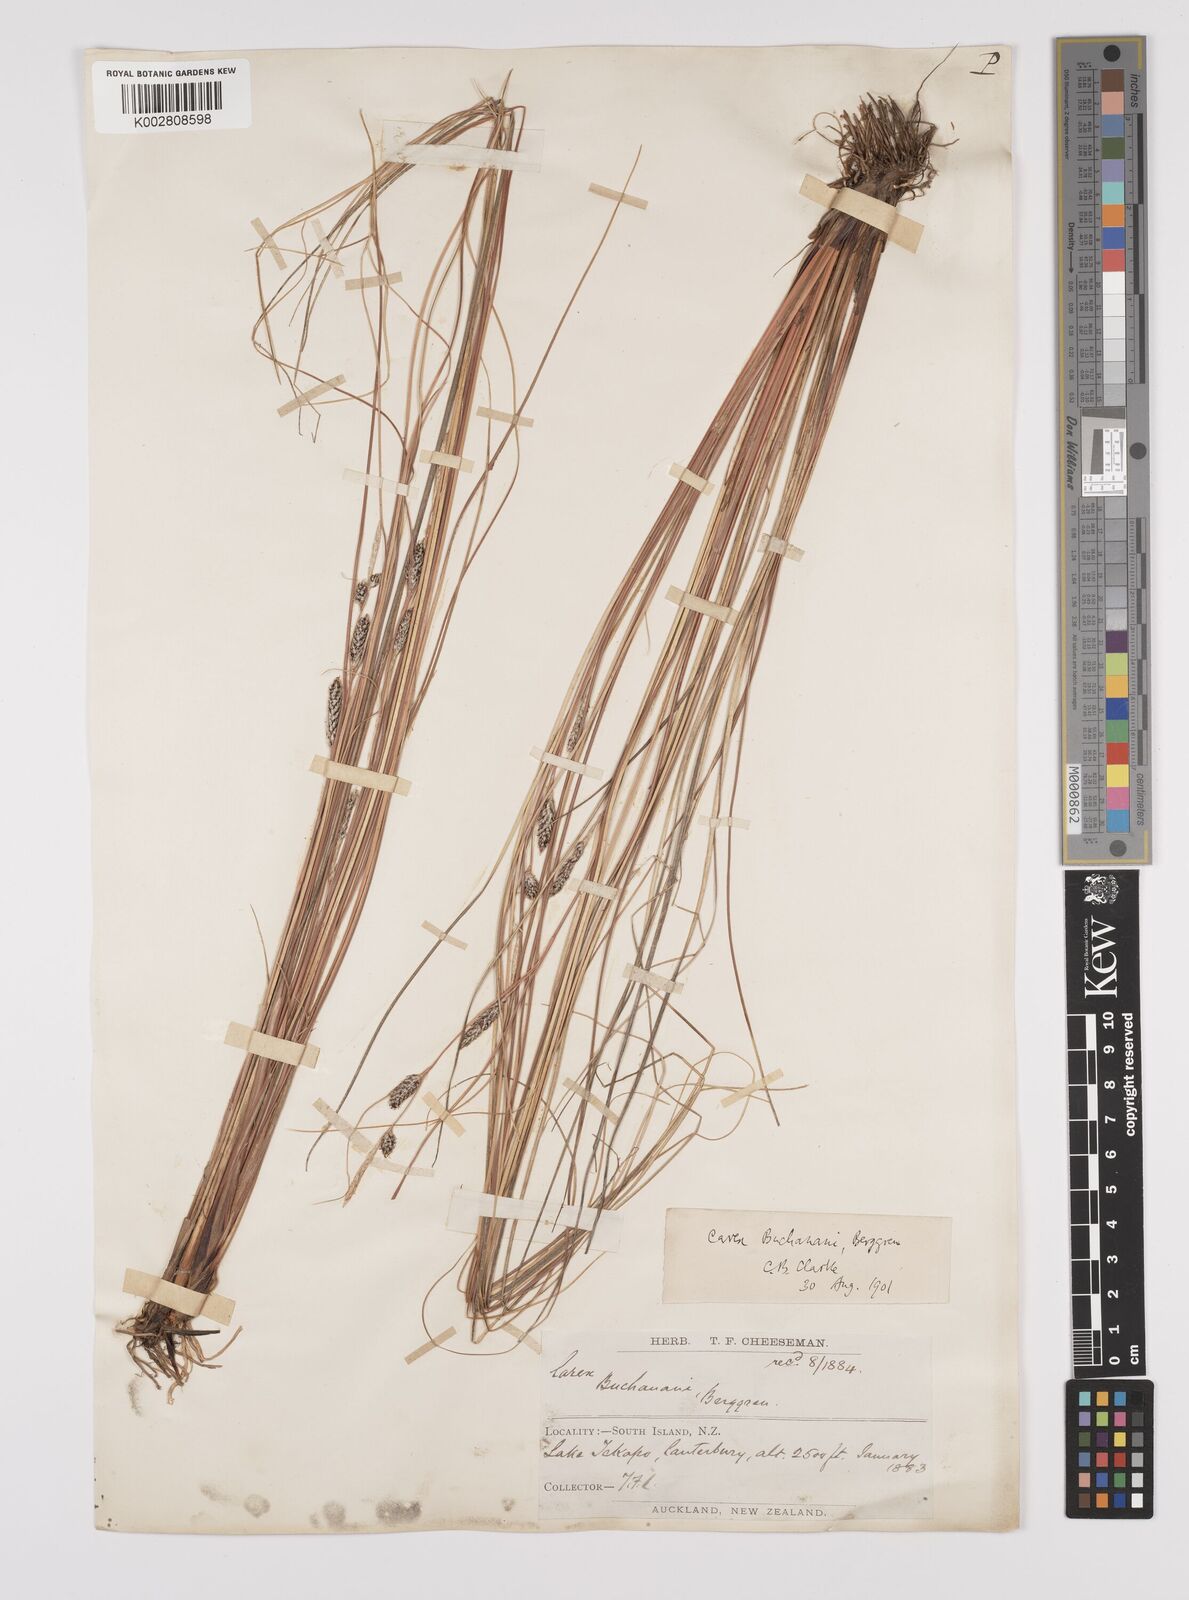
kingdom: Plantae
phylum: Tracheophyta
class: Liliopsida
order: Poales
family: Cyperaceae
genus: Carex
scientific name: Carex flagellifera
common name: Glen murray tussock
